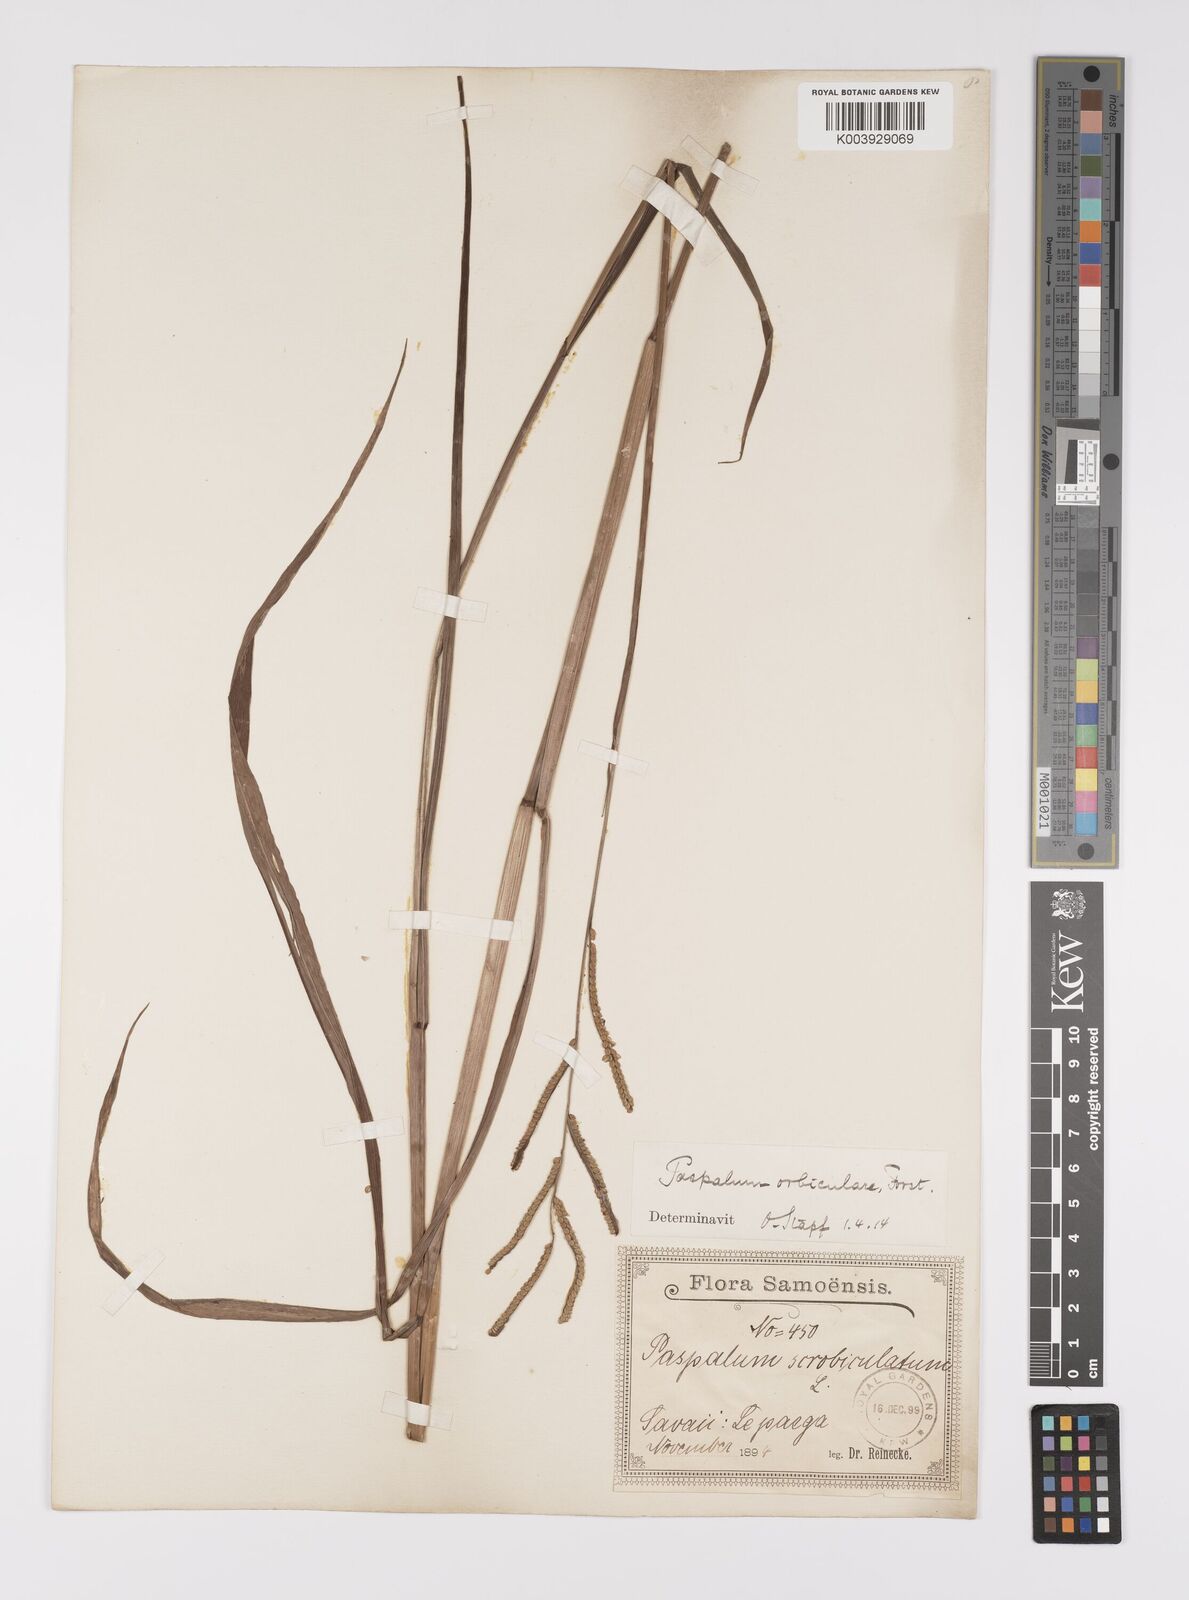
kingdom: Plantae
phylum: Tracheophyta
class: Liliopsida
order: Poales
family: Poaceae
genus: Paspalum
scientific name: Paspalum scrobiculatum
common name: Kodo millet
